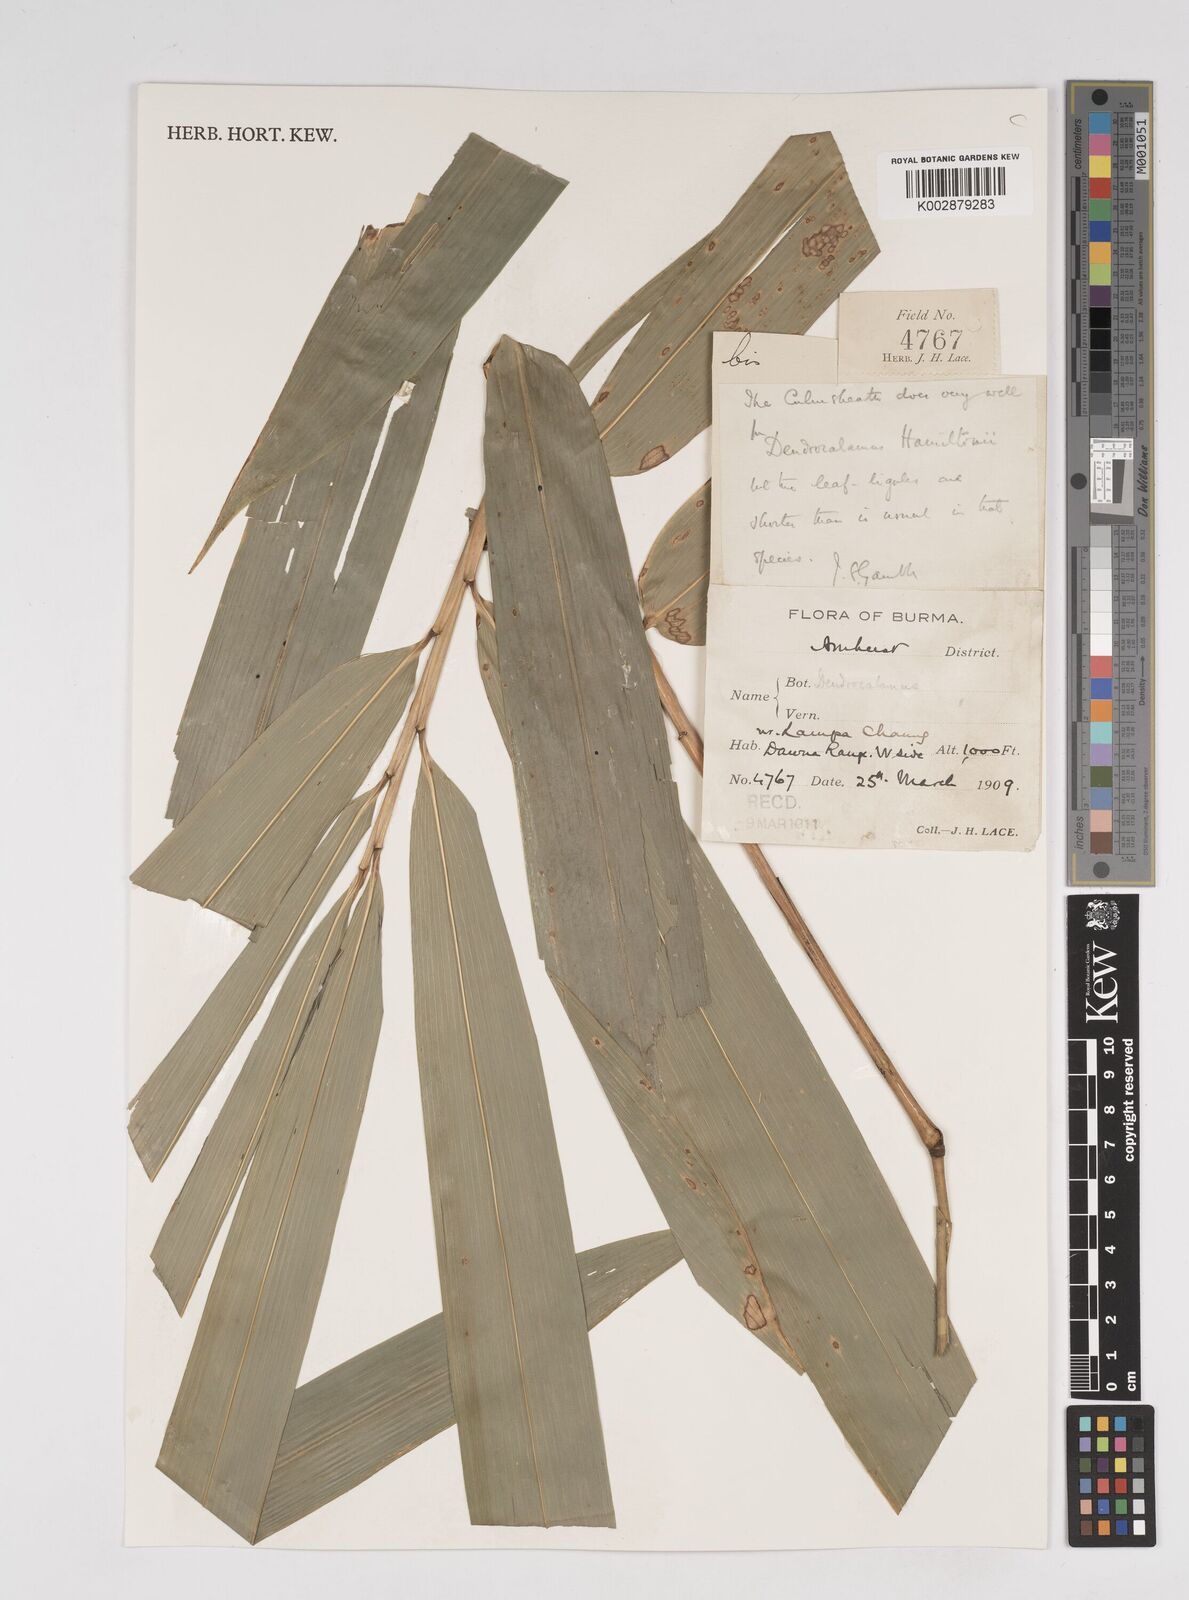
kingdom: Plantae
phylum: Tracheophyta
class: Liliopsida
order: Poales
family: Poaceae
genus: Dendrocalamus
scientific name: Dendrocalamus
